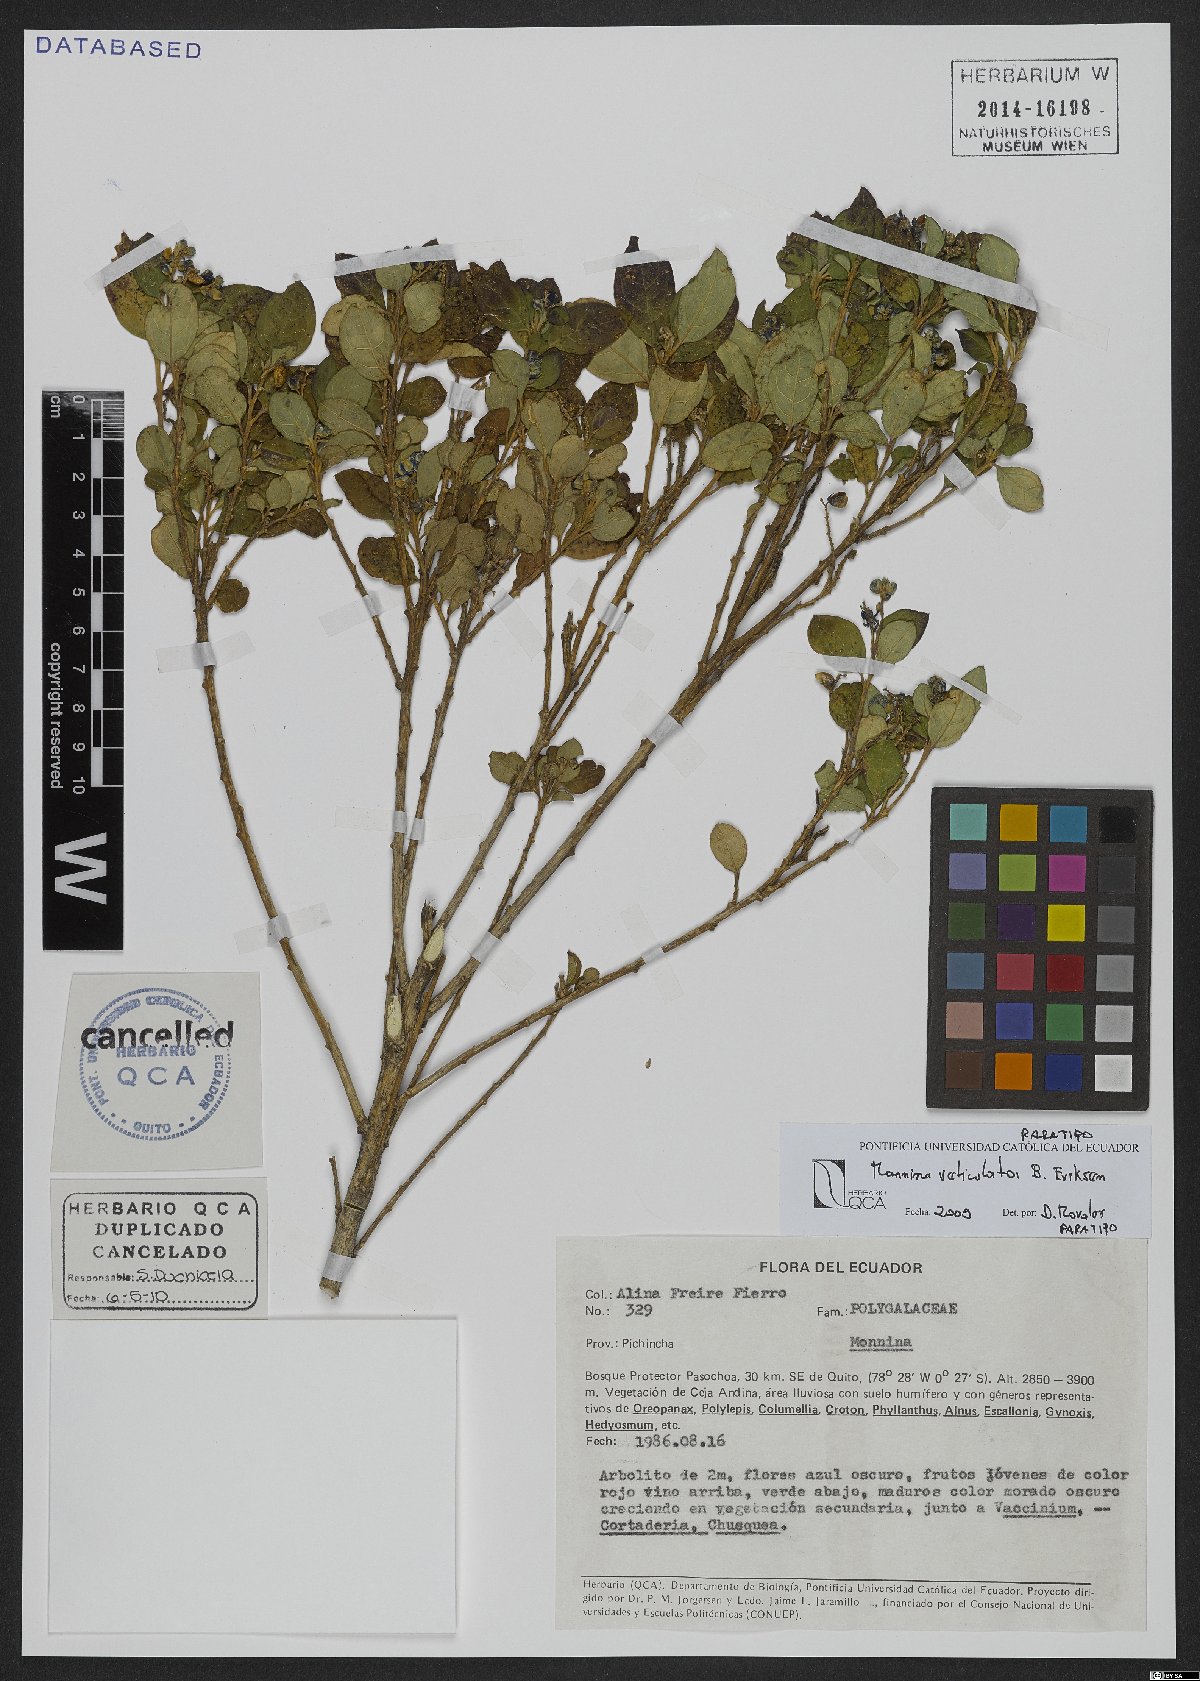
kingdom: Plantae
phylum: Tracheophyta
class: Magnoliopsida
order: Fabales
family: Polygalaceae
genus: Monnina
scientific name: Monnina reticulata
